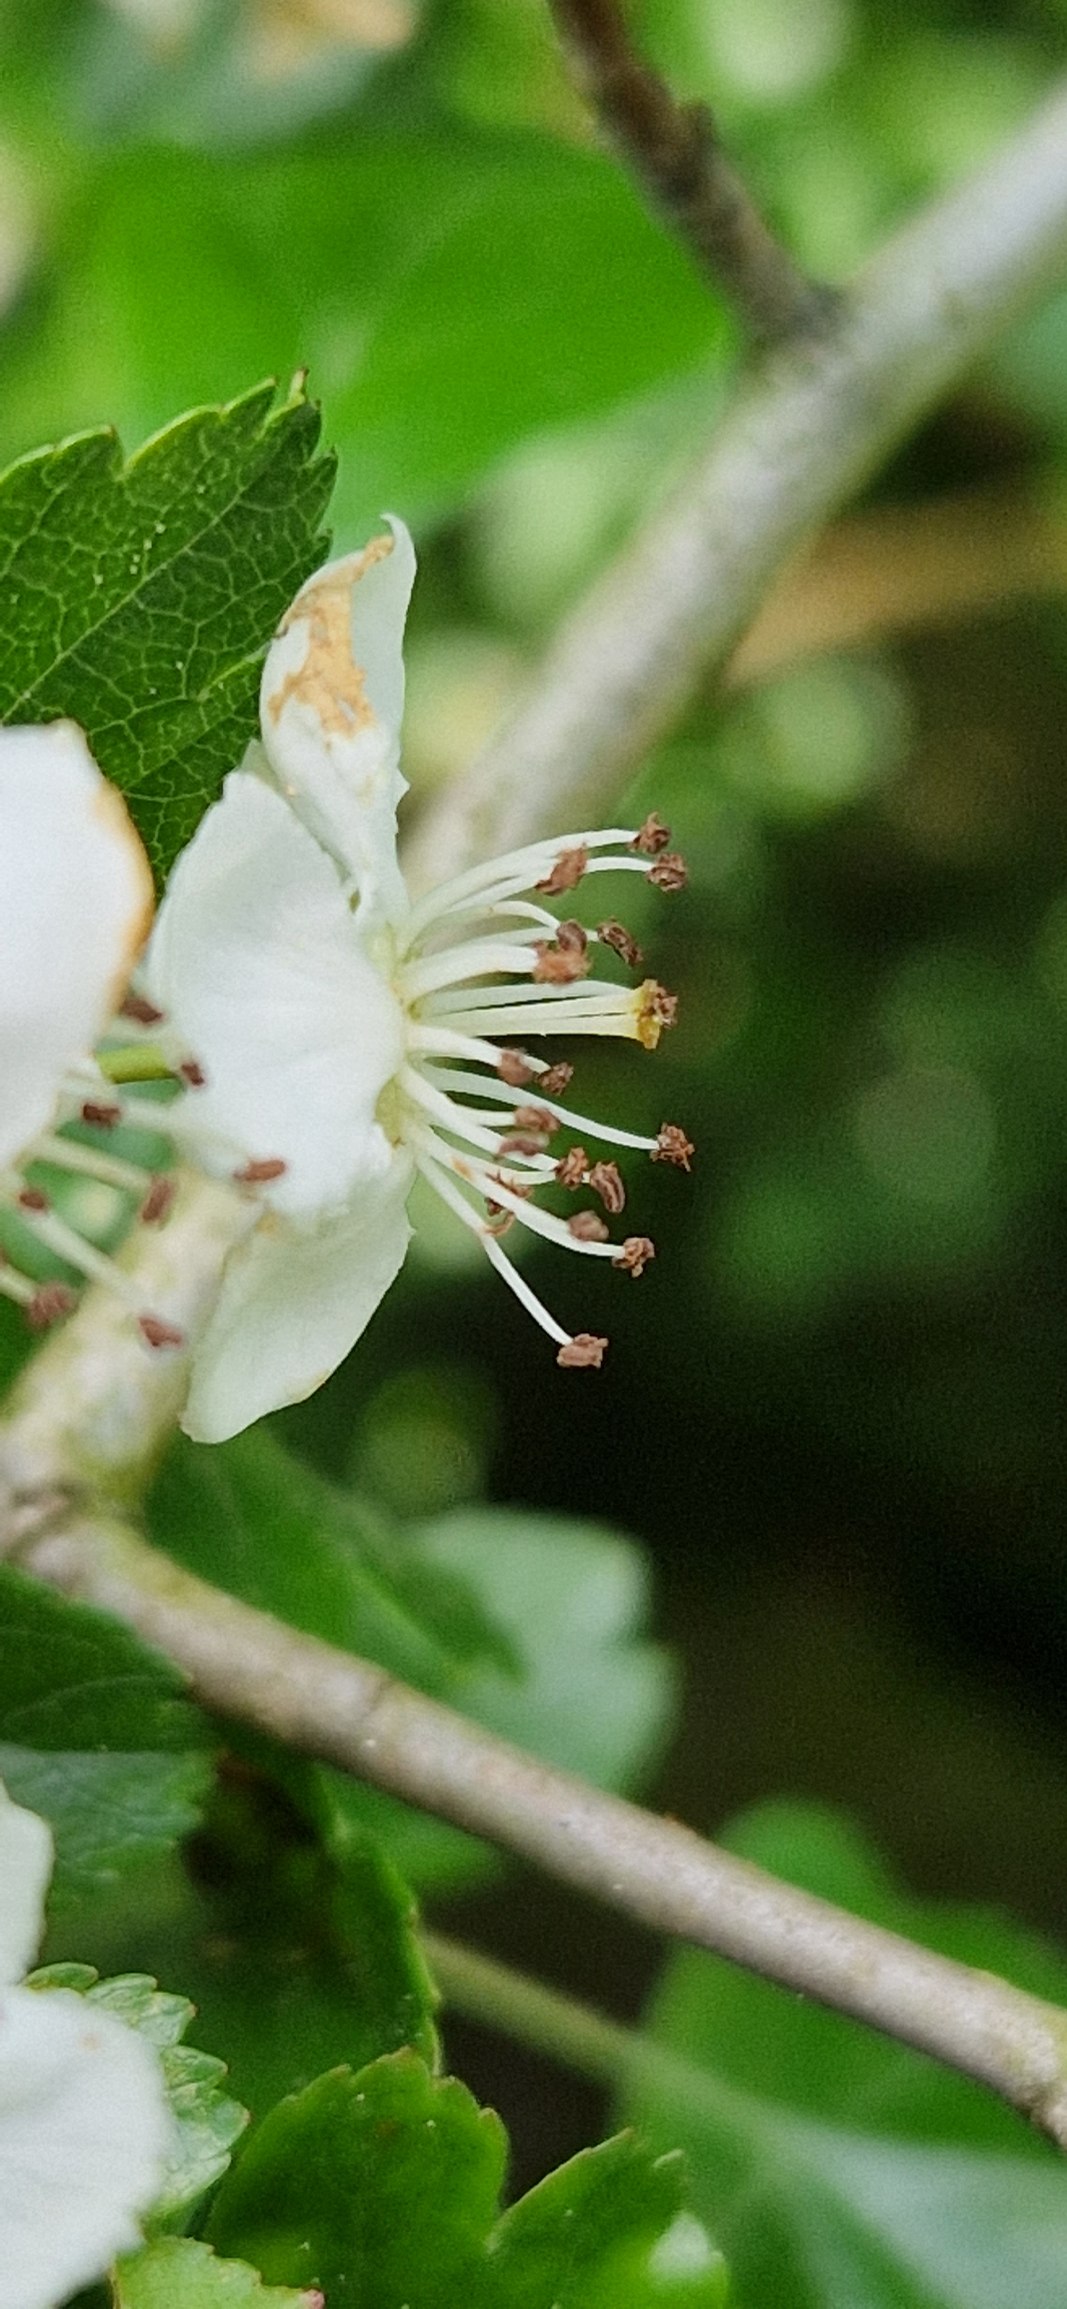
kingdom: Plantae
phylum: Tracheophyta
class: Magnoliopsida
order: Rosales
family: Rosaceae
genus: Crataegus
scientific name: Crataegus laevigata
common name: Almindelig hvidtjørn
